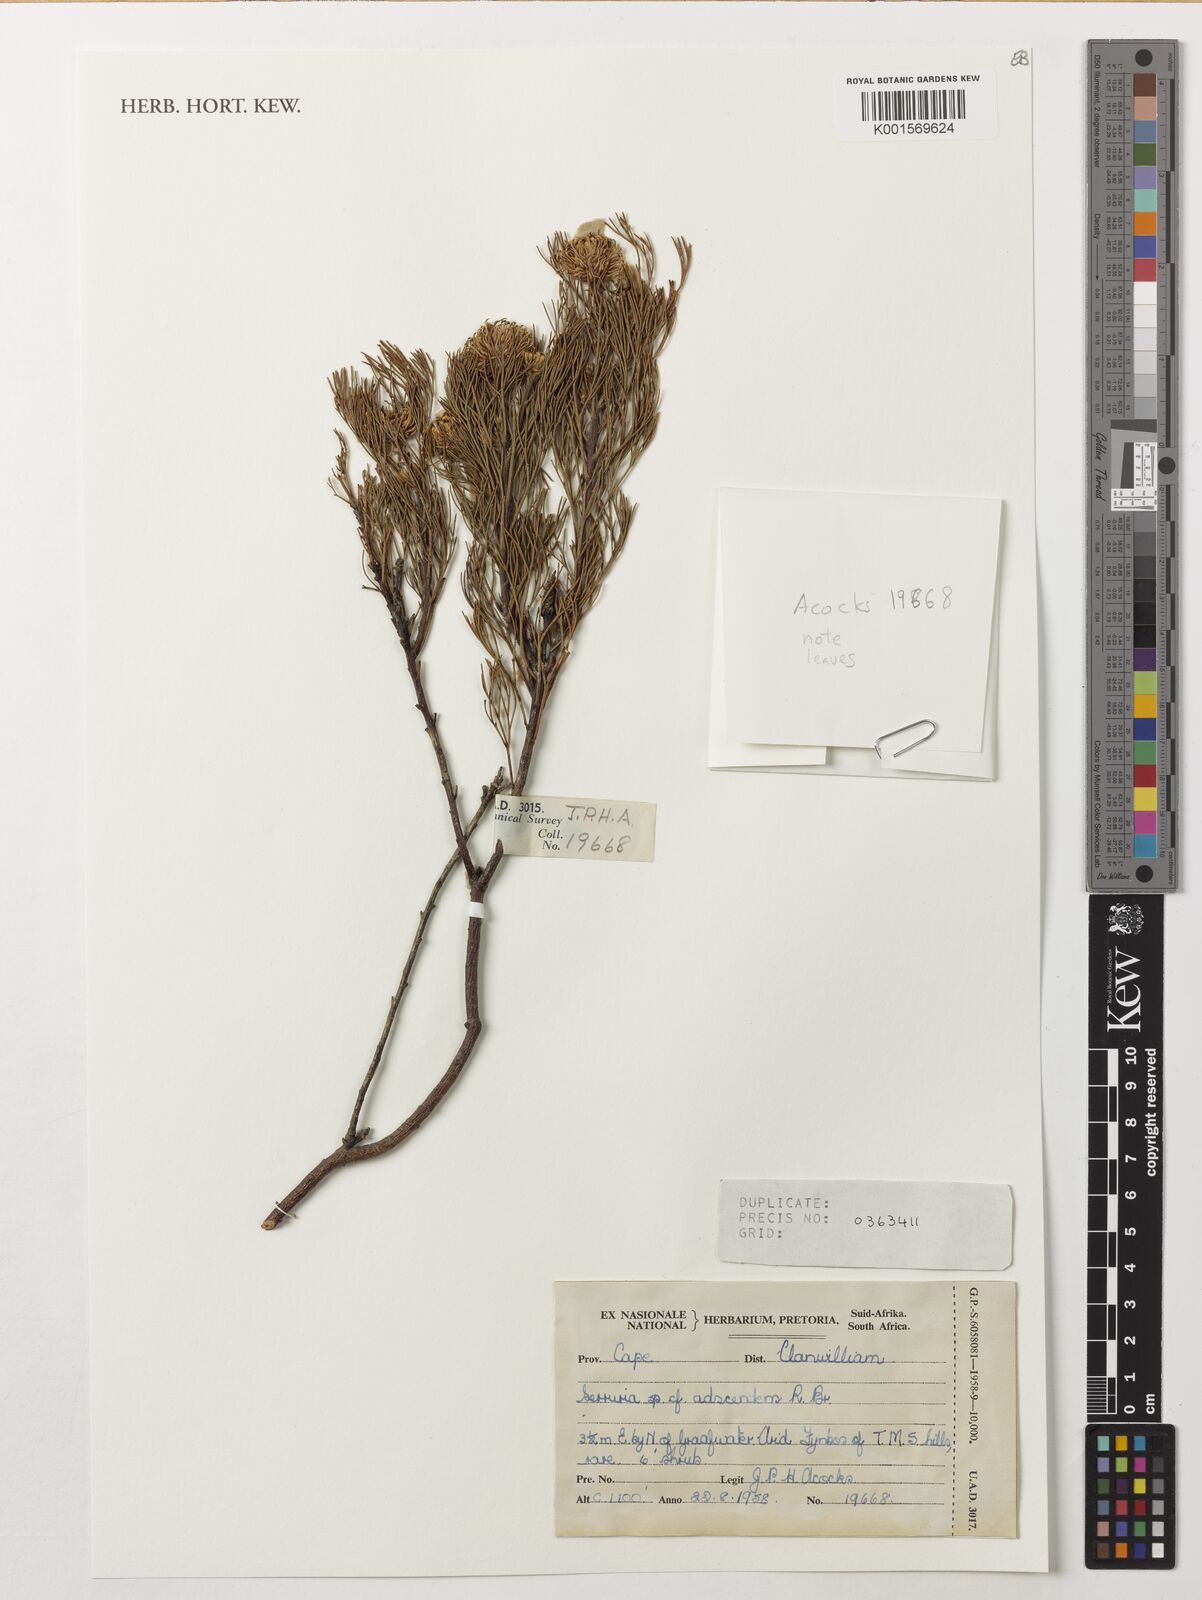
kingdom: Plantae
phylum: Tracheophyta
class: Magnoliopsida
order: Proteales
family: Proteaceae
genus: Serruria
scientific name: Serruria
